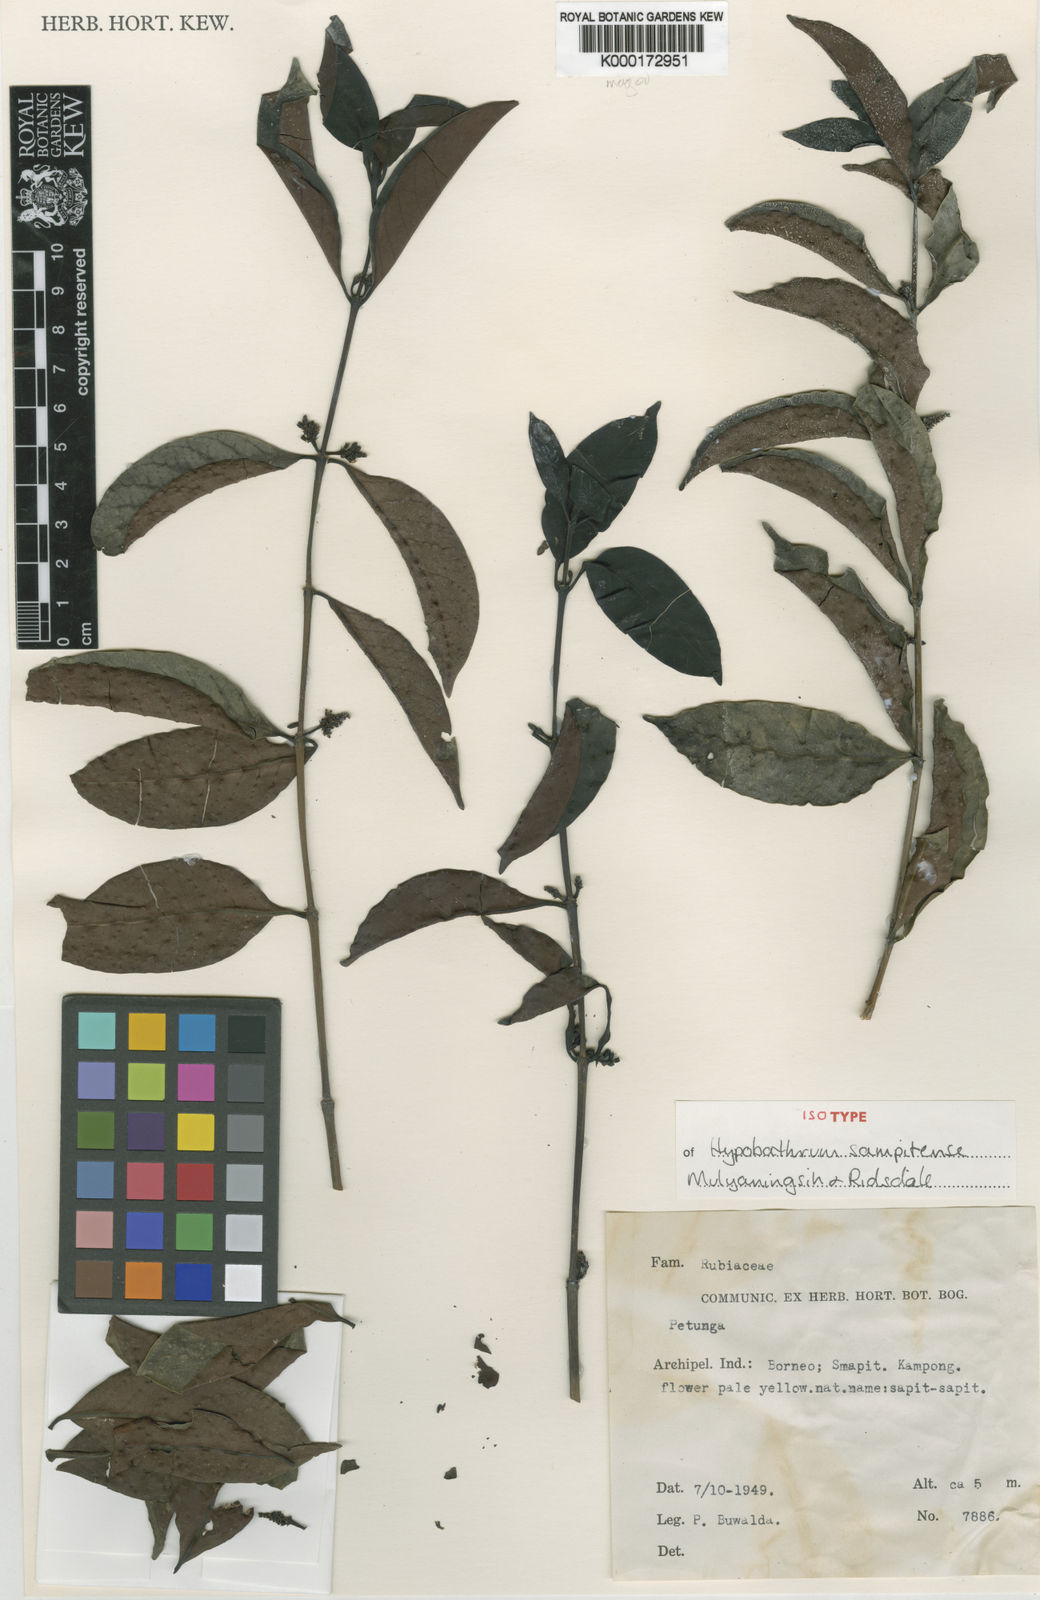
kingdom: Plantae
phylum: Tracheophyta
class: Magnoliopsida
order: Gentianales
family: Rubiaceae
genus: Hypobathrum
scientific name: Hypobathrum sampitense
